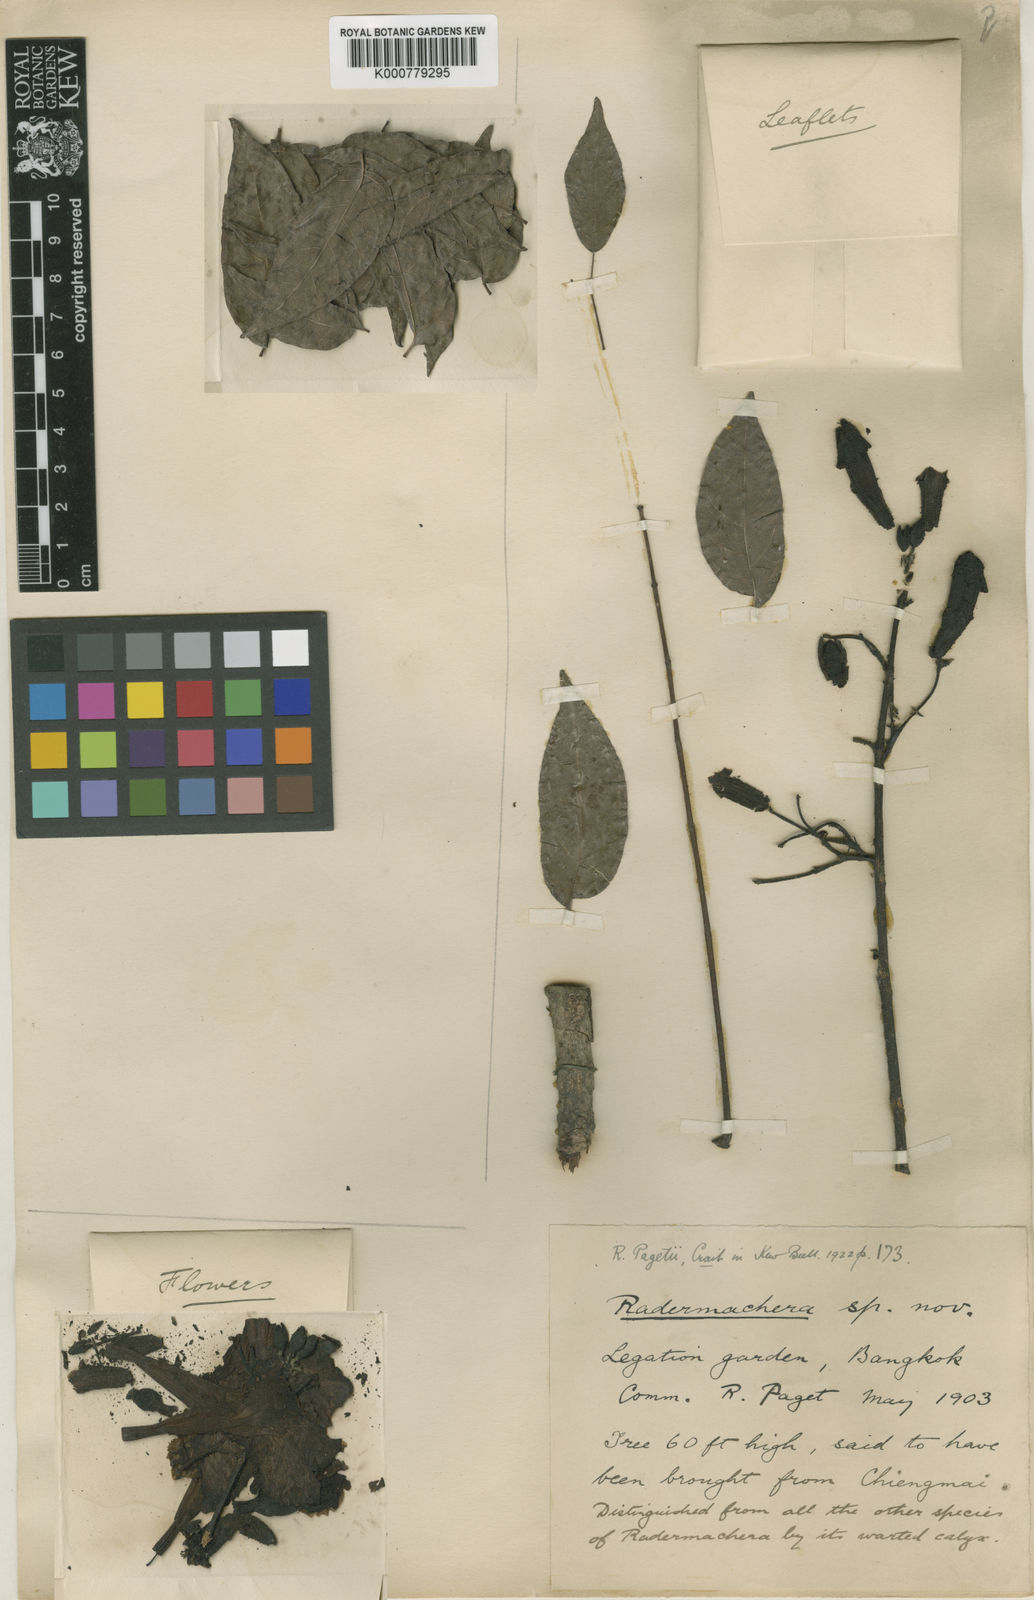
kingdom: Plantae
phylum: Tracheophyta
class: Magnoliopsida
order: Lamiales
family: Bignoniaceae
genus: Santisukia
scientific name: Santisukia pagetii
